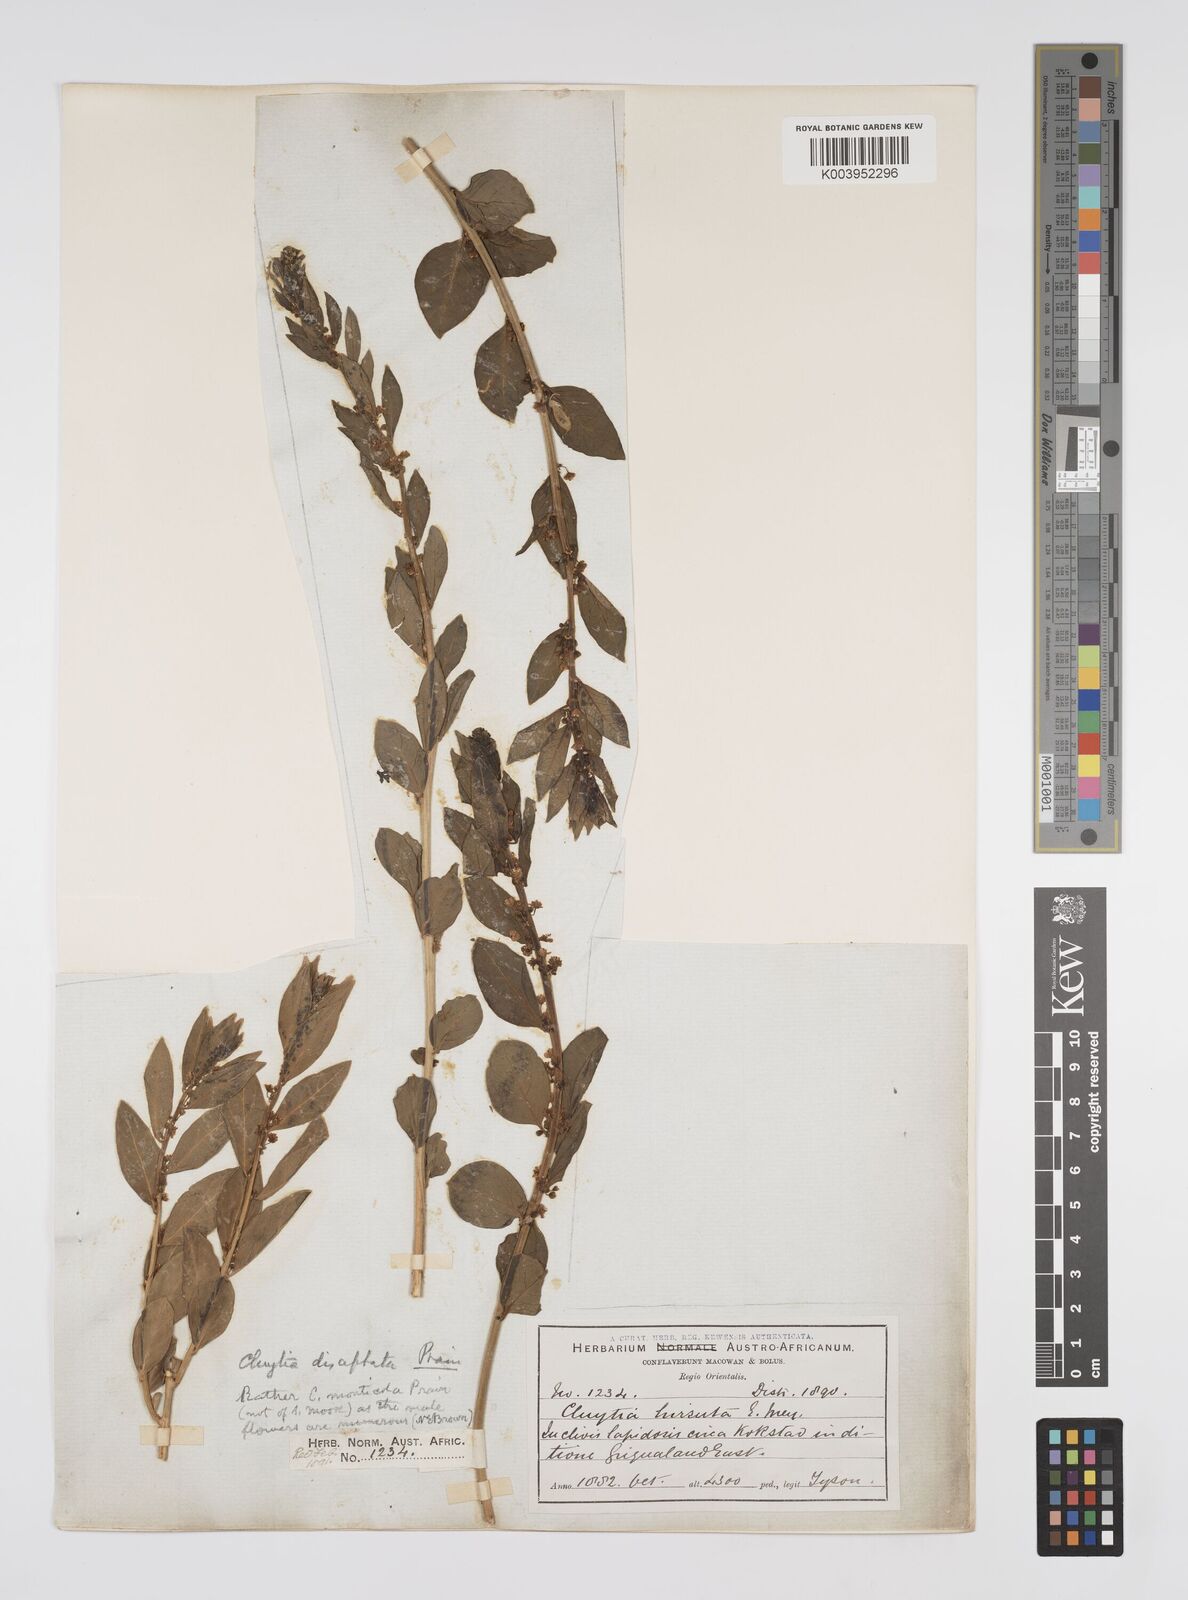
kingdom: Plantae
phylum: Tracheophyta
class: Magnoliopsida
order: Malpighiales
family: Peraceae
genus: Clutia
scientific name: Clutia disceptata
